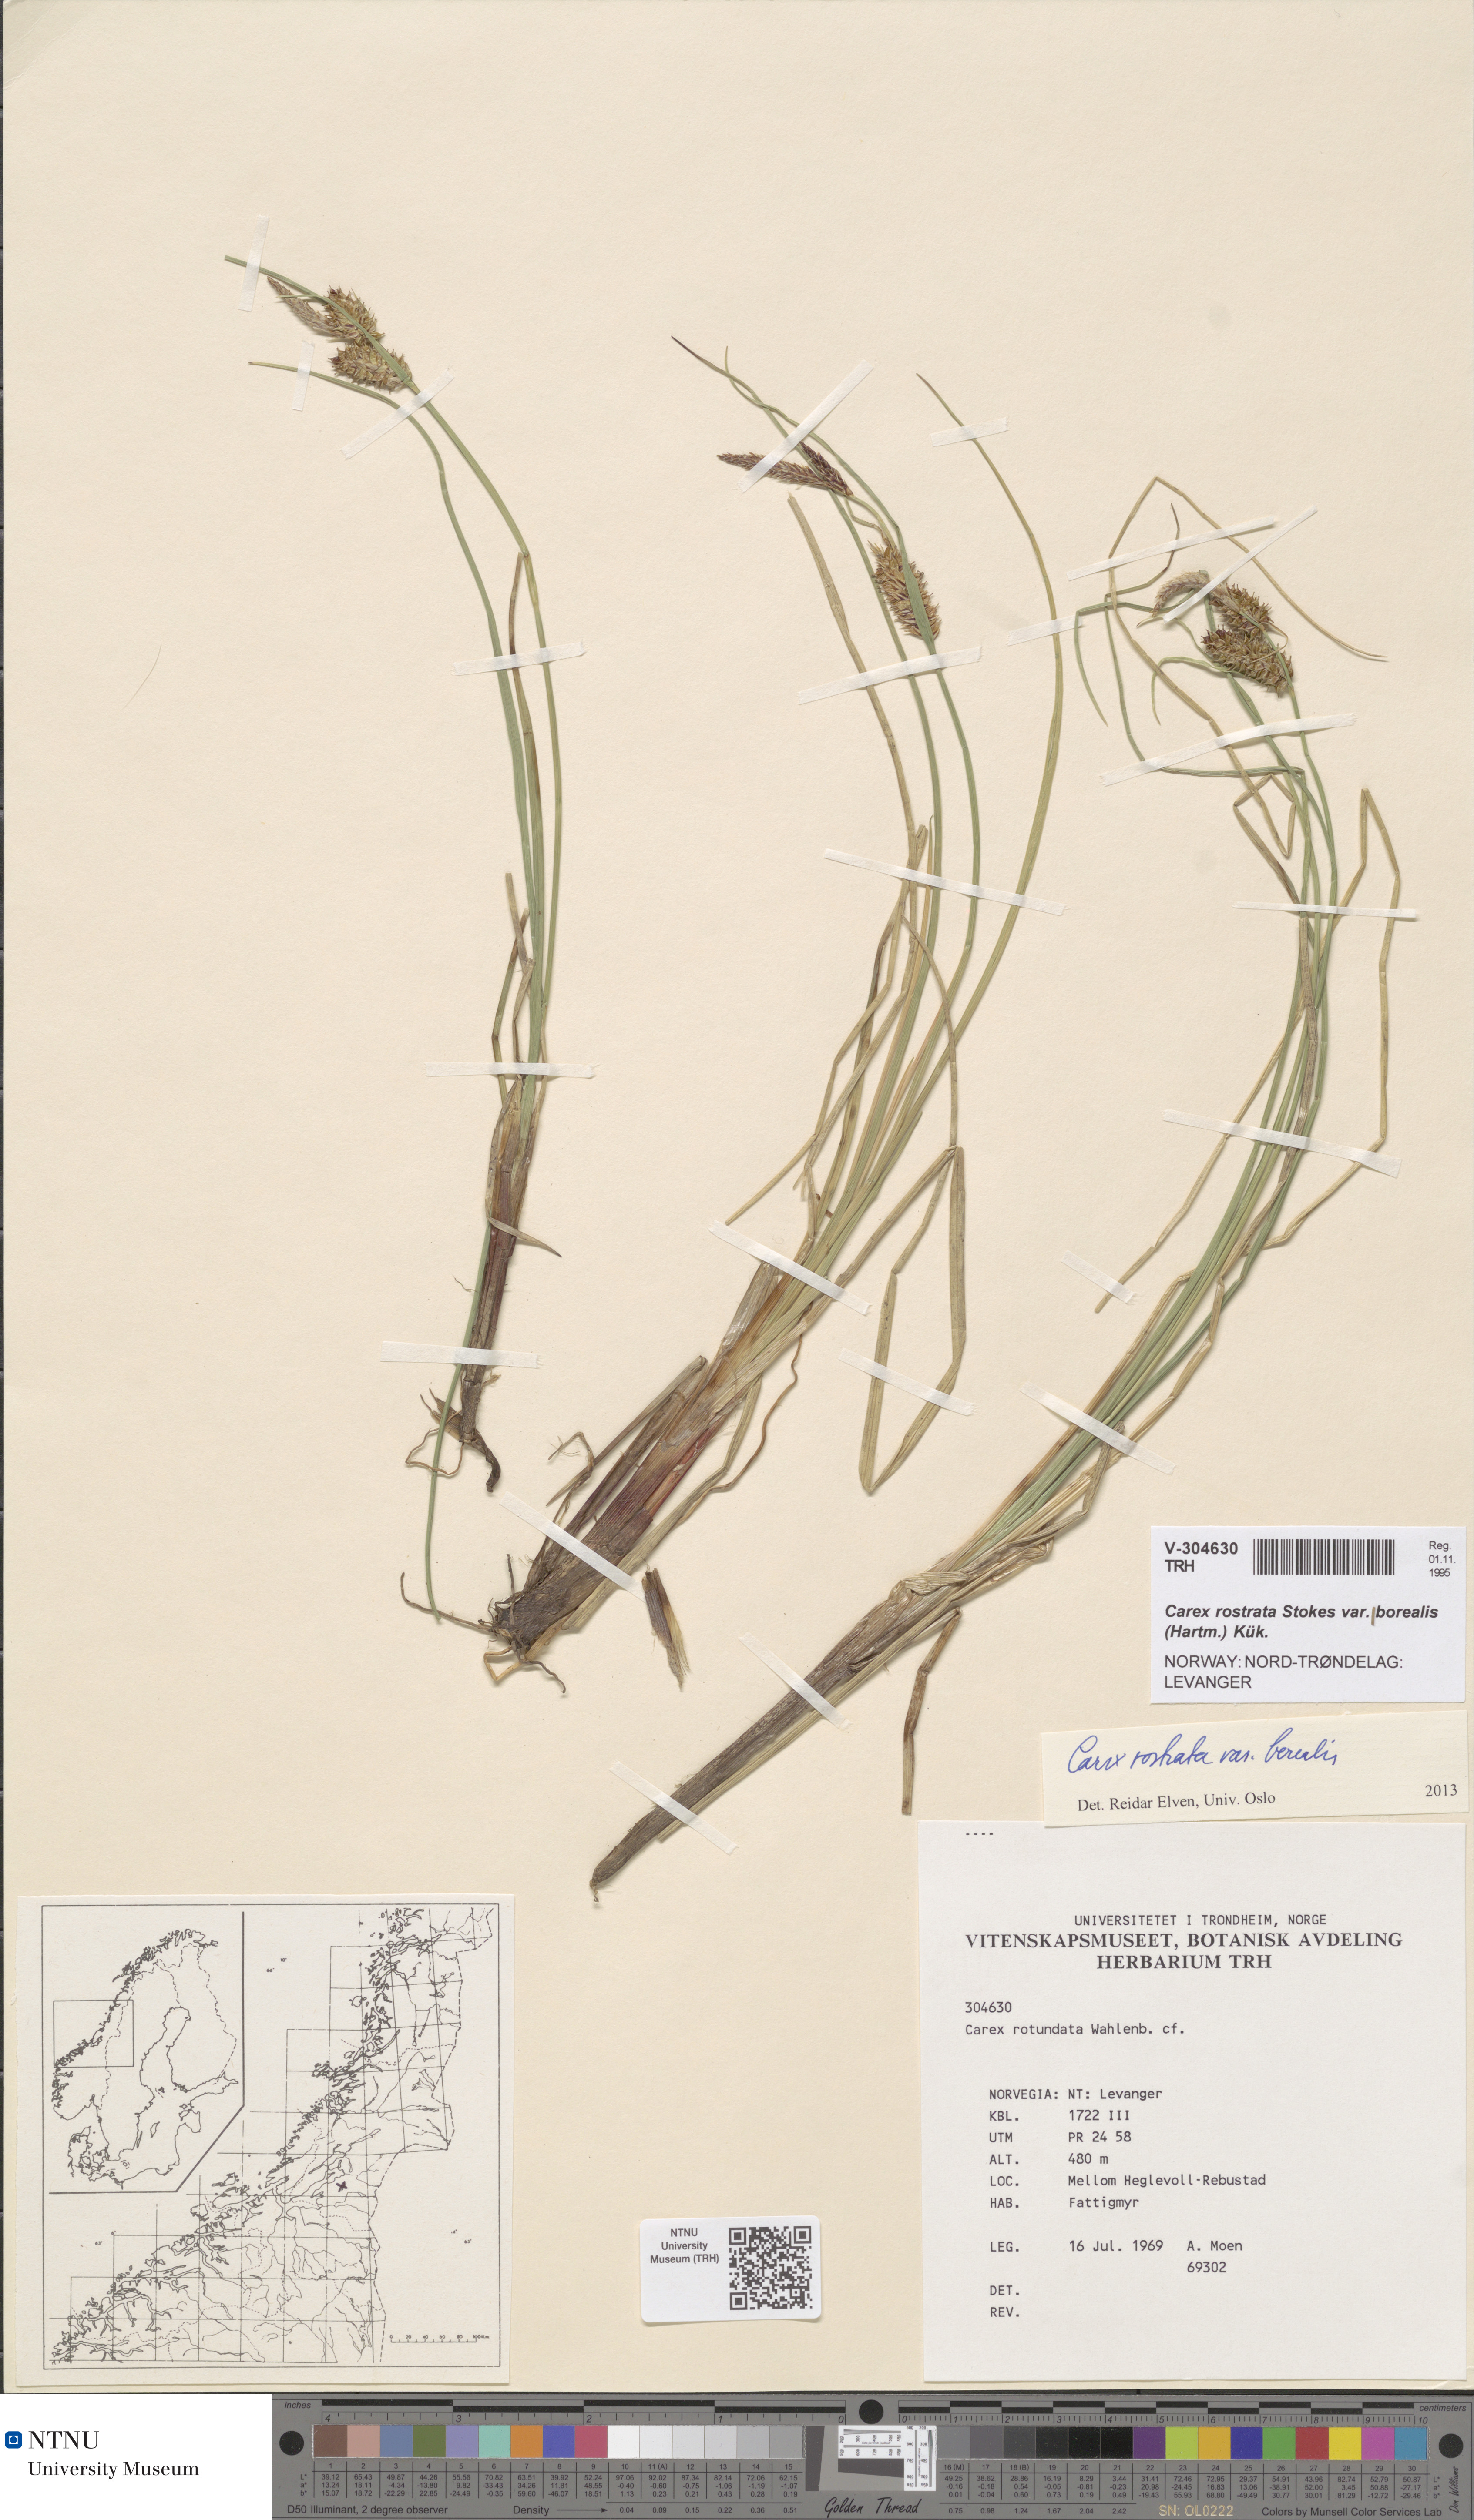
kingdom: Plantae
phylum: Tracheophyta
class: Liliopsida
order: Poales
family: Cyperaceae
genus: Carex
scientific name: Carex saamica
